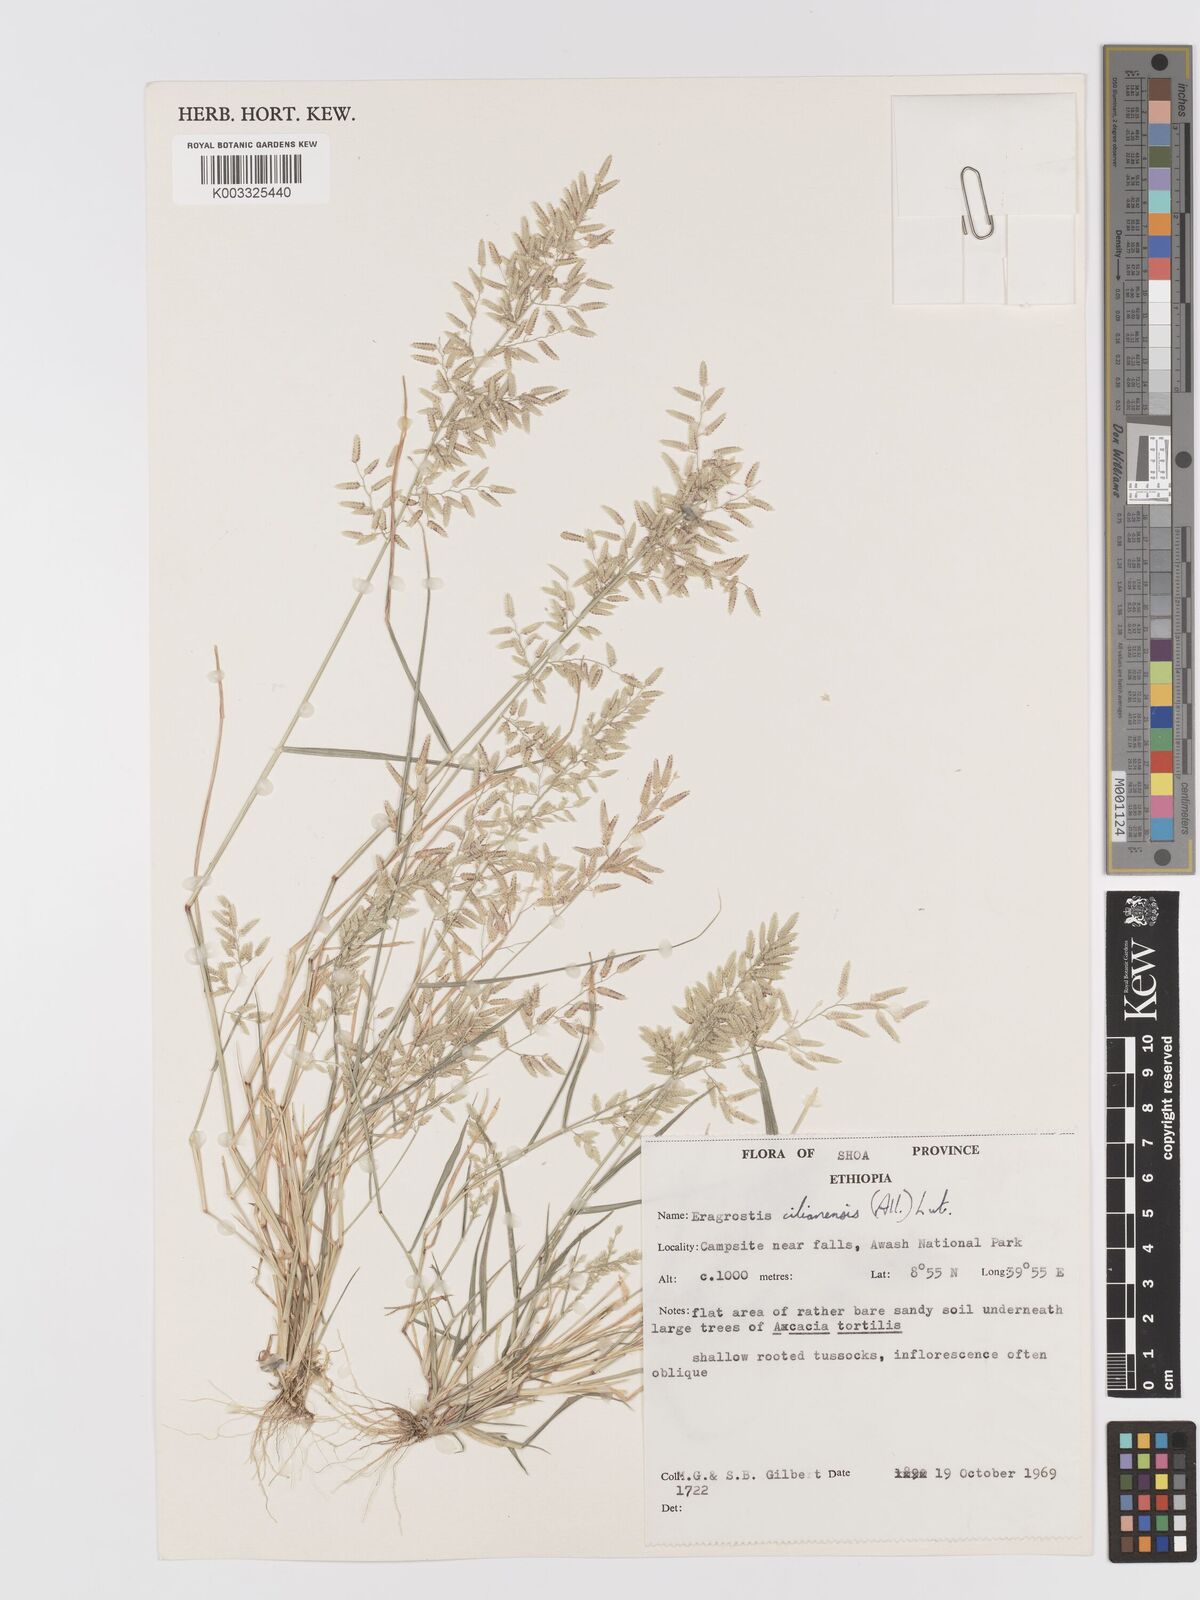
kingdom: Plantae
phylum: Tracheophyta
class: Liliopsida
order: Poales
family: Poaceae
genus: Eragrostis
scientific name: Eragrostis cilianensis
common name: Stinkgrass
